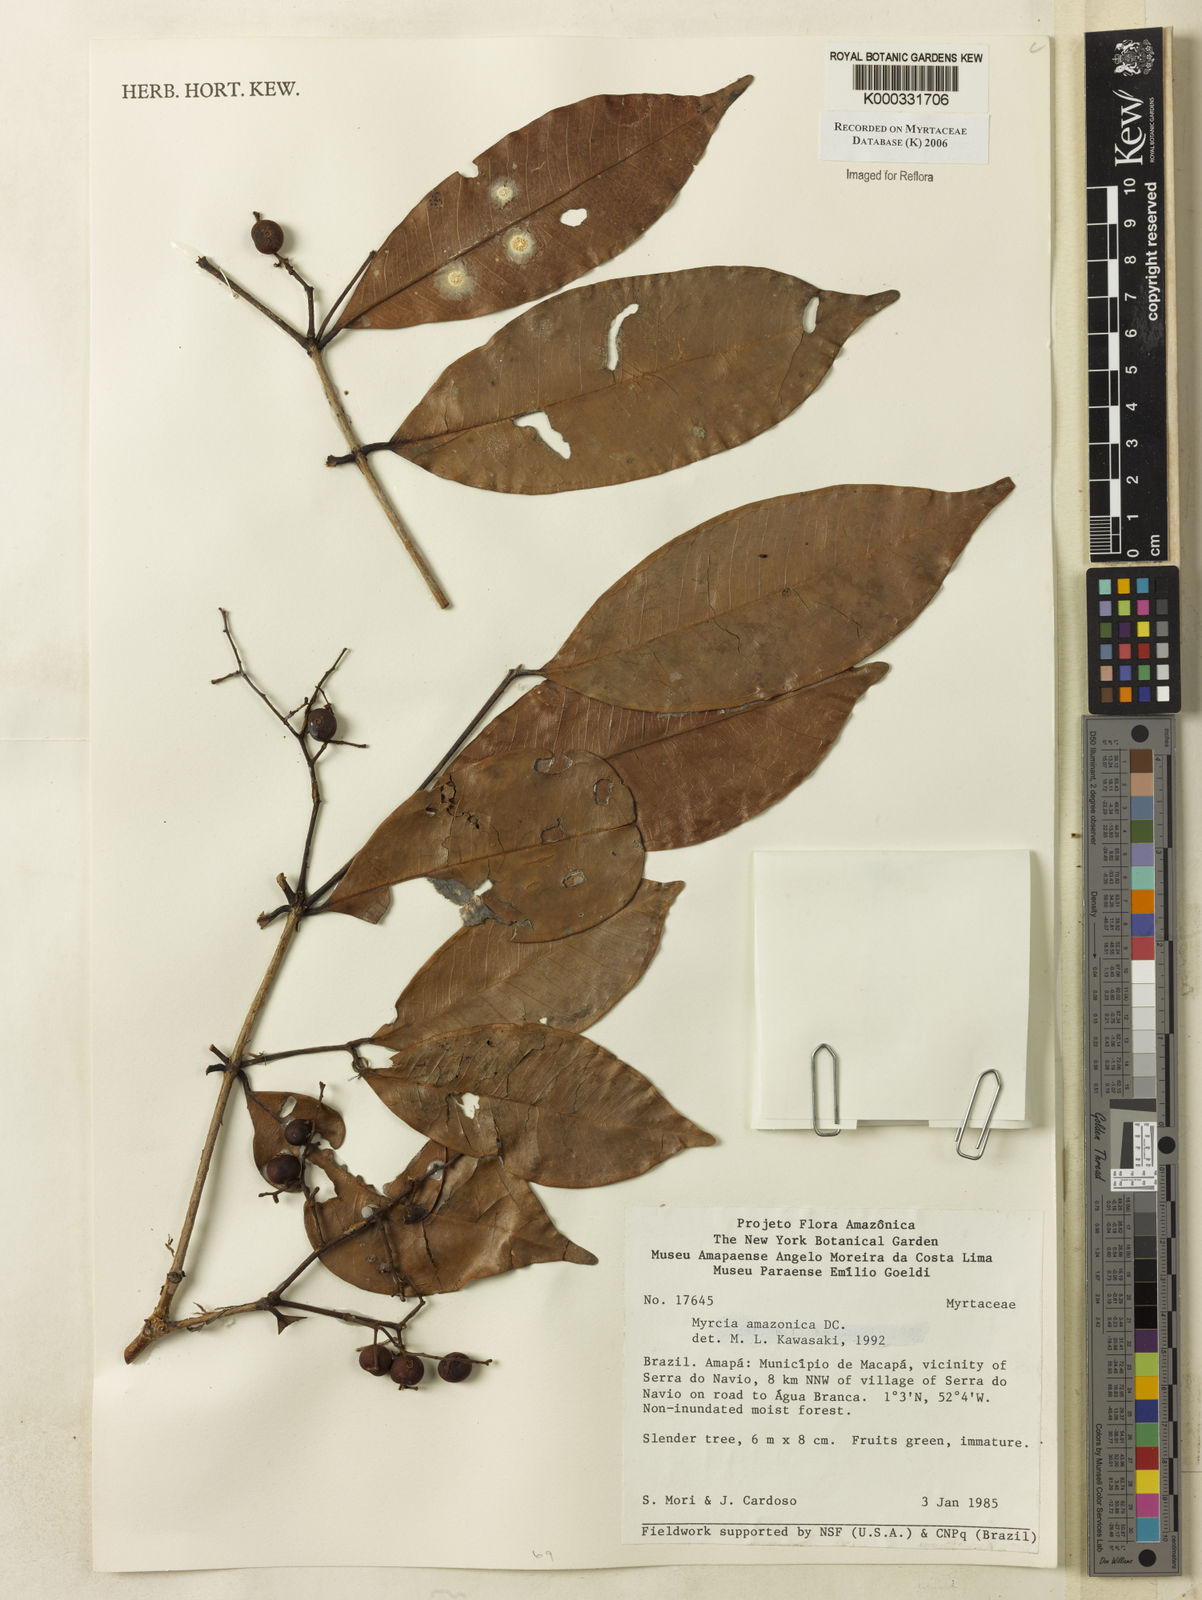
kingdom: Plantae
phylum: Tracheophyta
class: Magnoliopsida
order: Myrtales
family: Myrtaceae
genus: Myrcia
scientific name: Myrcia amazonica
